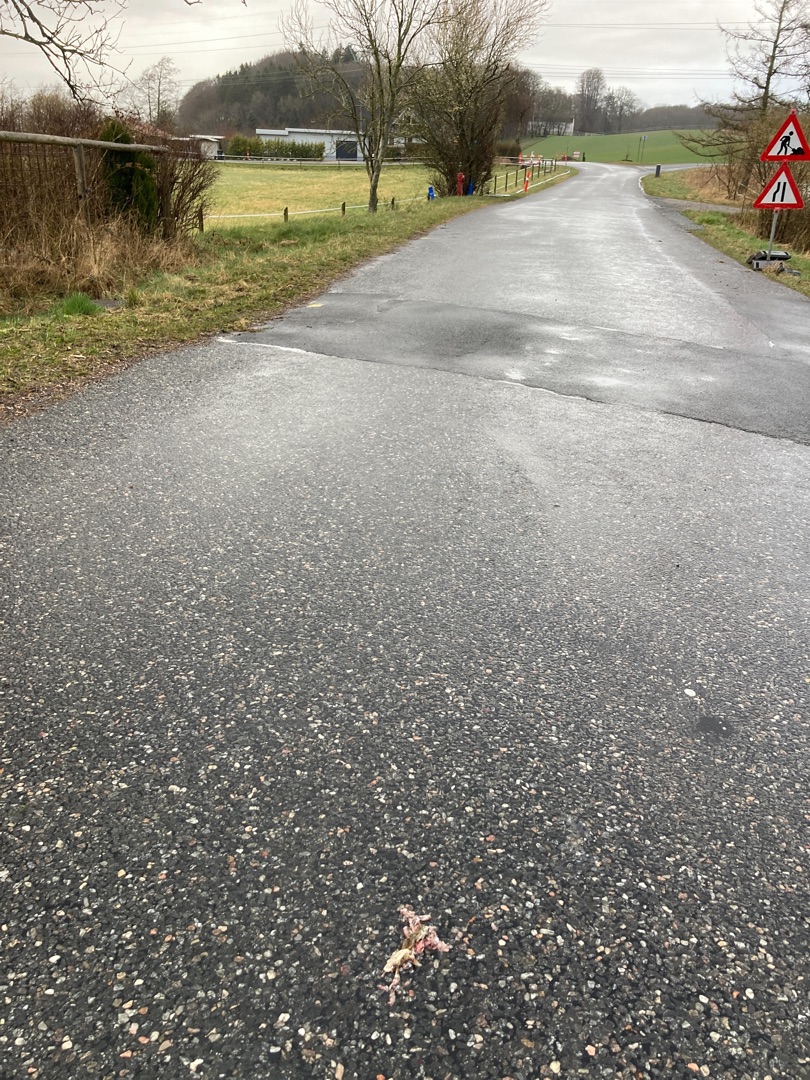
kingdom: Animalia
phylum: Chordata
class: Amphibia
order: Anura
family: Bufonidae
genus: Bufo
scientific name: Bufo bufo
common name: Skrubtudse
